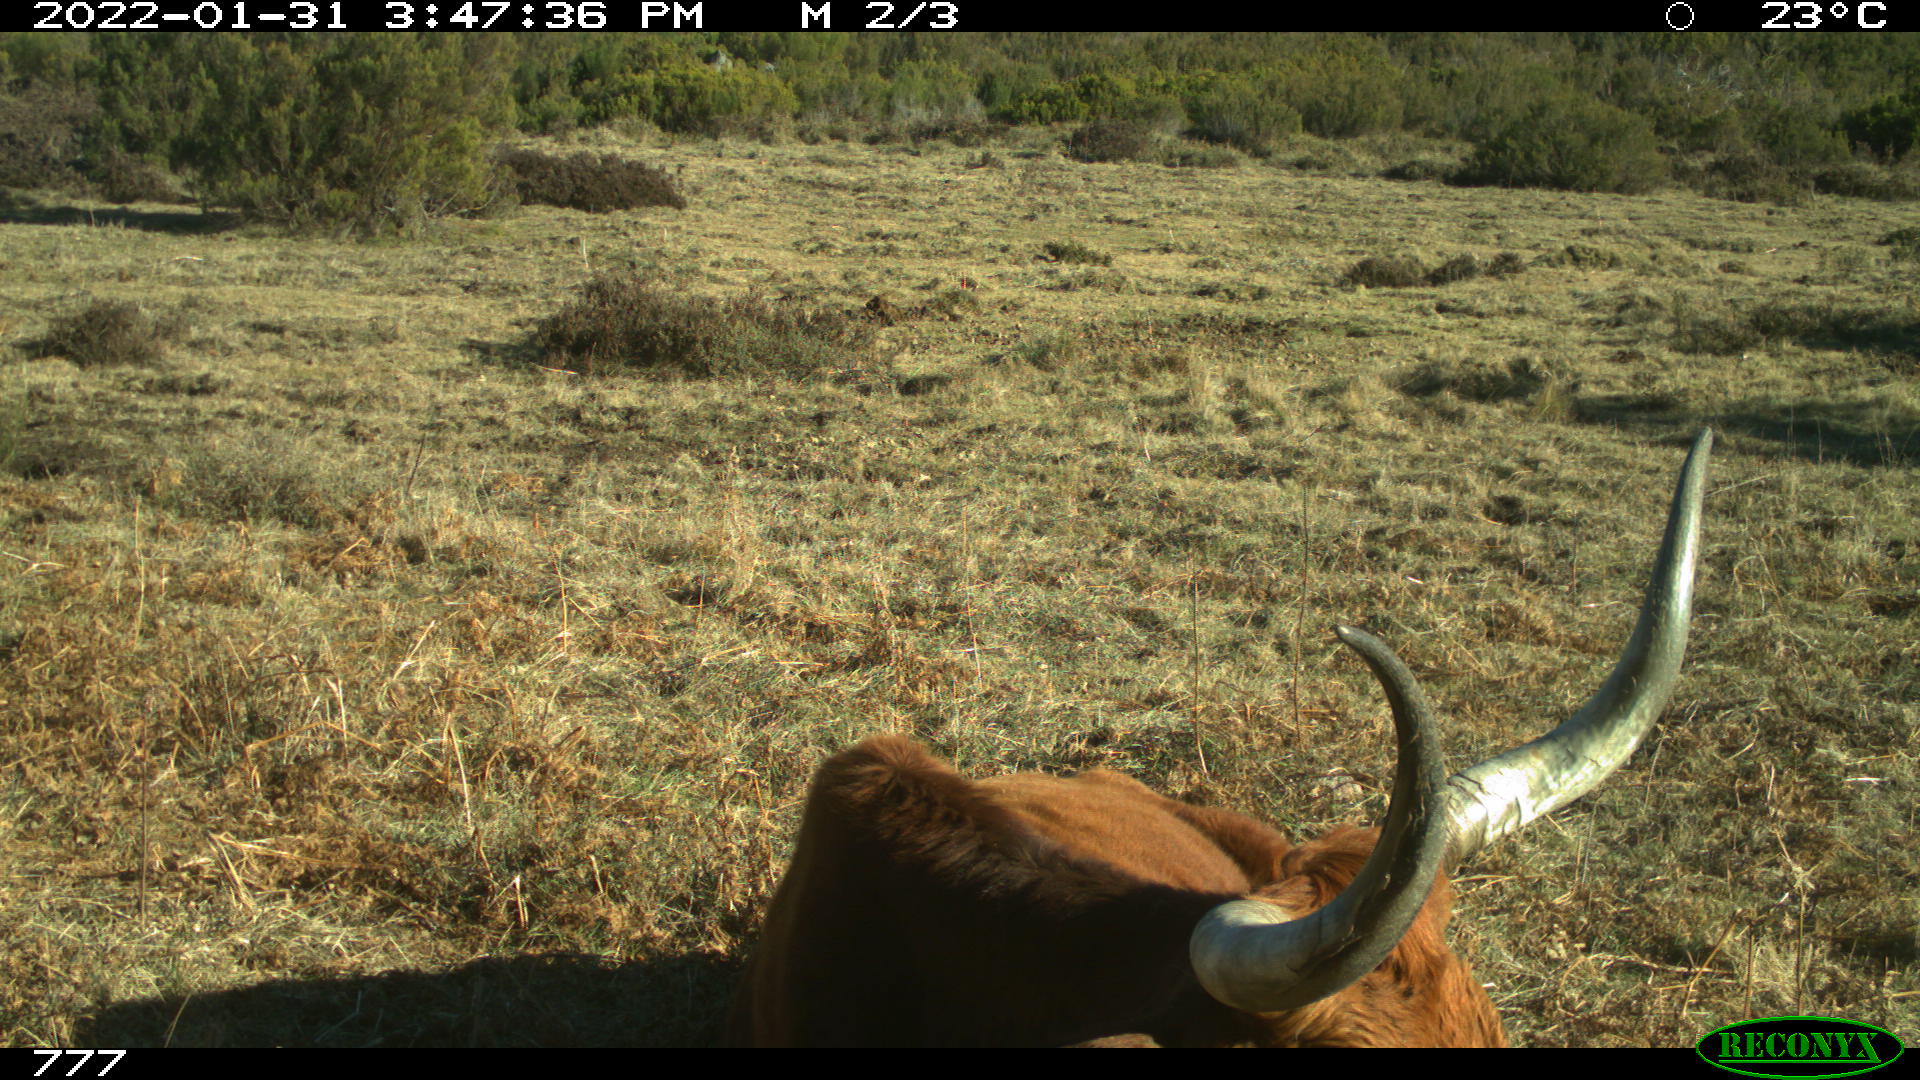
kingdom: Animalia
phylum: Chordata
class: Mammalia
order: Artiodactyla
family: Bovidae
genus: Bos
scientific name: Bos taurus
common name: Domesticated cattle
